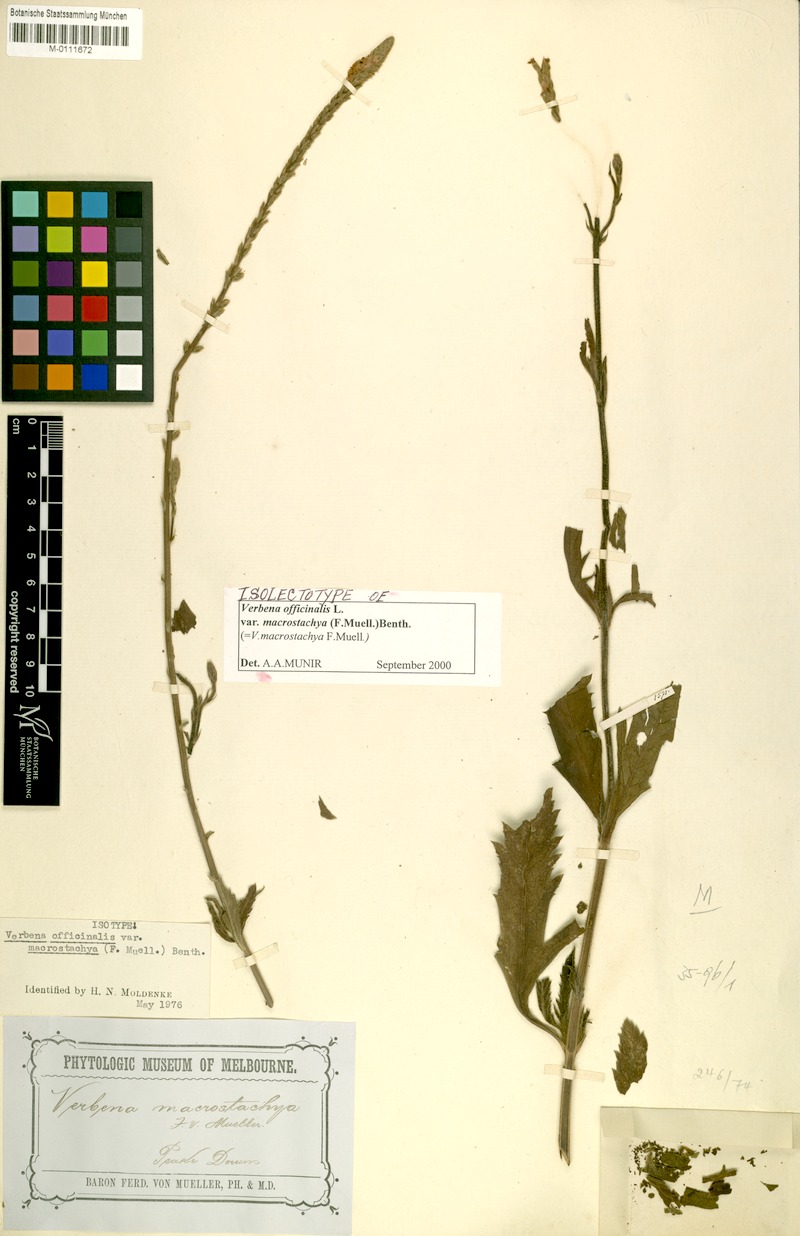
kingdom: Plantae
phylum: Tracheophyta
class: Magnoliopsida
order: Lamiales
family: Verbenaceae
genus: Verbena
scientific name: Verbena officinalis
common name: Vervain
